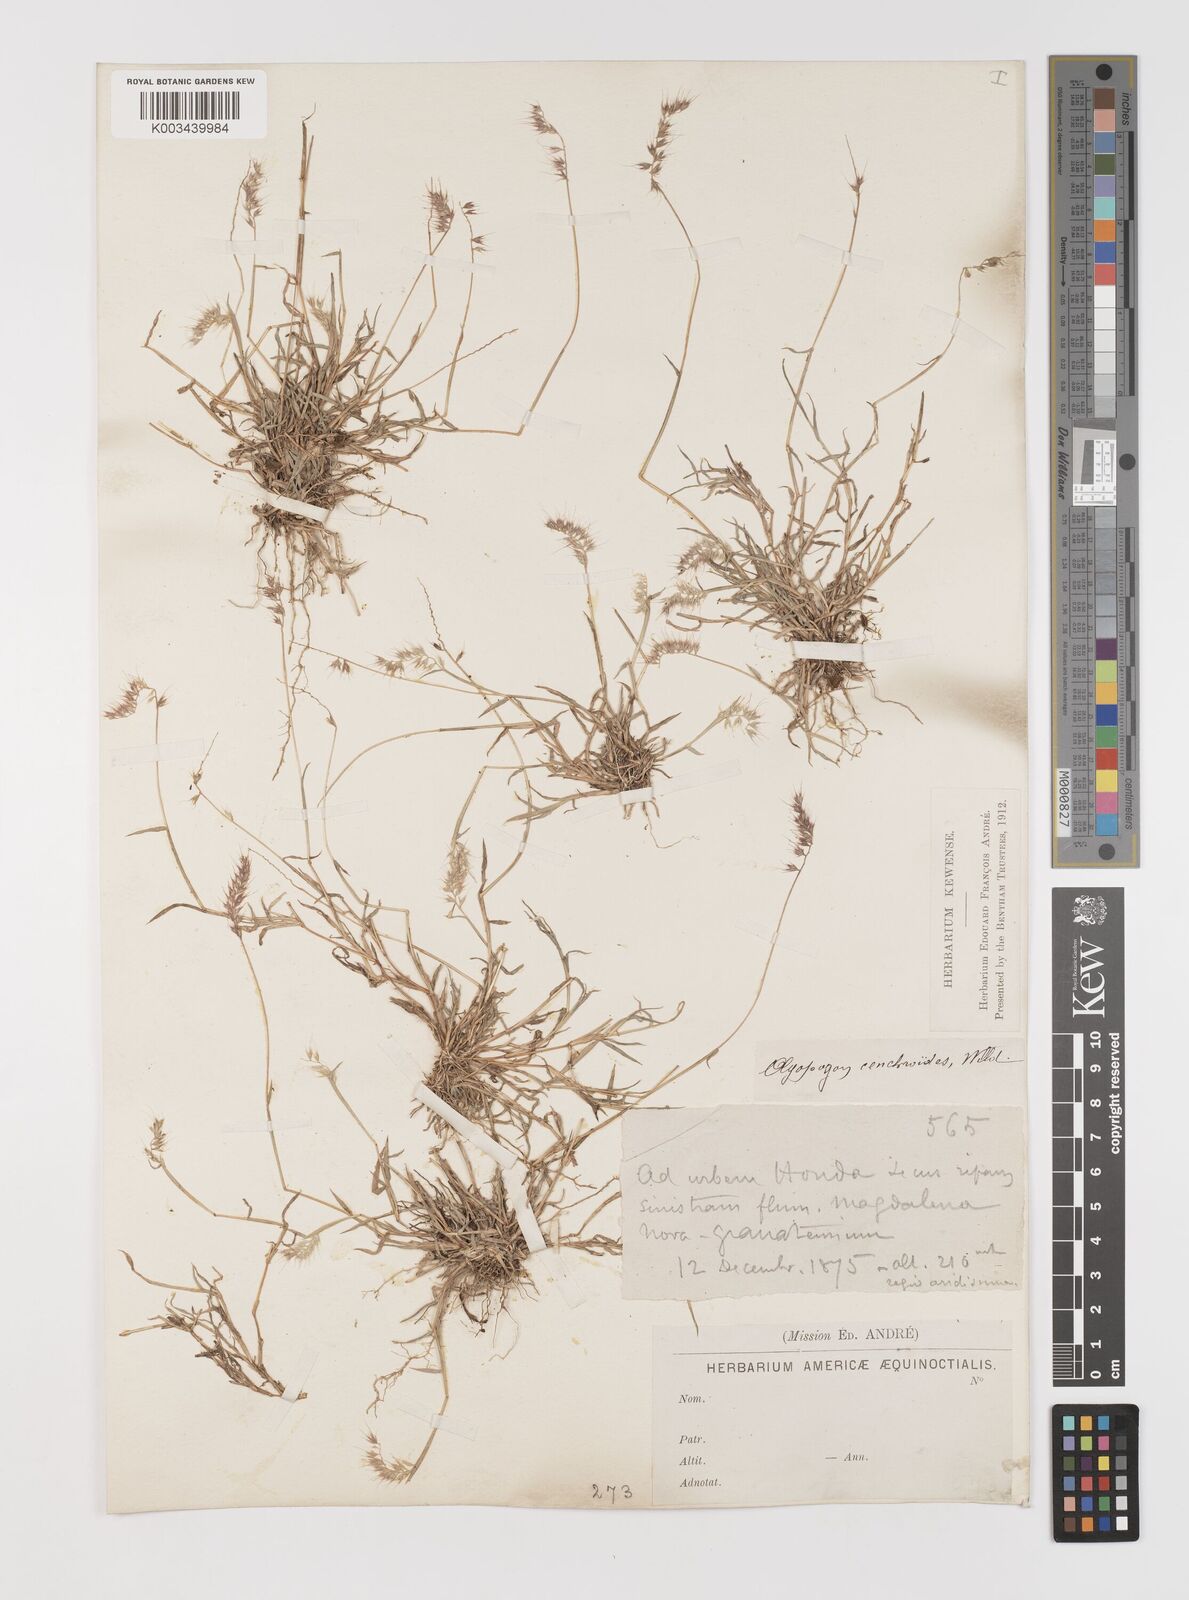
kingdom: Plantae
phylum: Tracheophyta
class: Liliopsida
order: Poales
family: Poaceae
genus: Muhlenbergia
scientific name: Muhlenbergia cenchroides
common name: Relaxgrass
